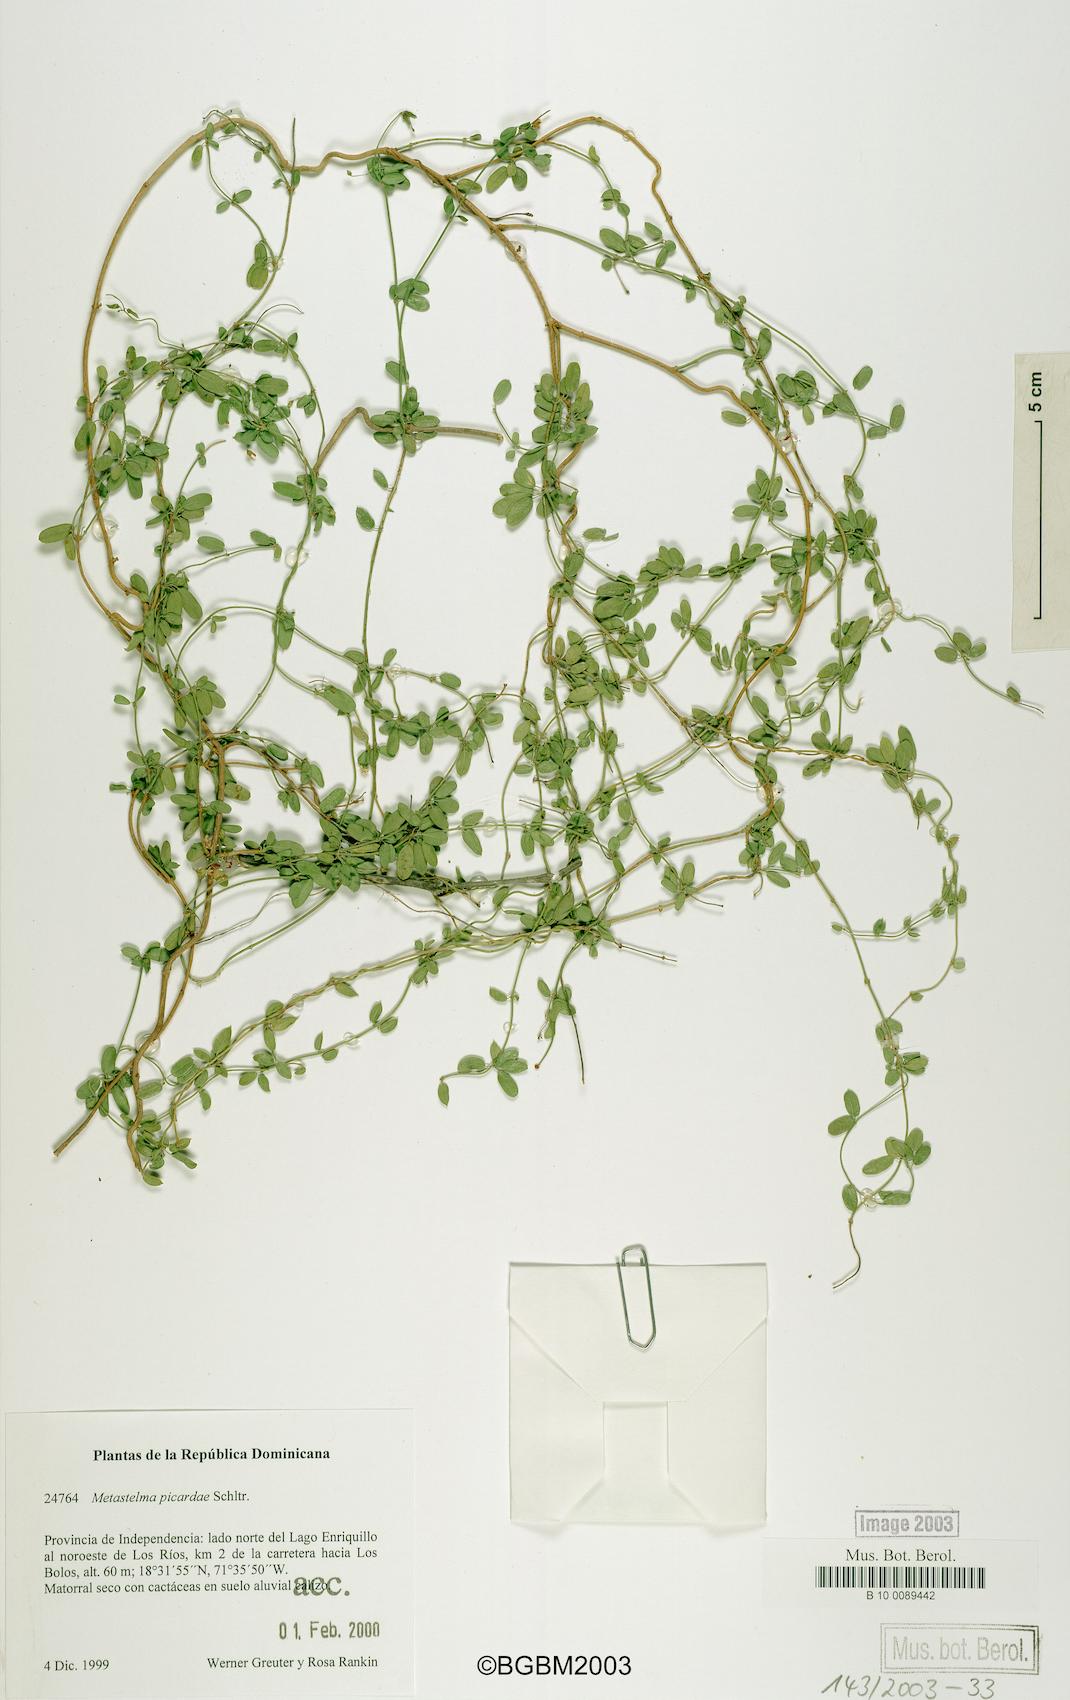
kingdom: Plantae
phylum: Tracheophyta
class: Magnoliopsida
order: Gentianales
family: Apocynaceae
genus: Metastelma
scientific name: Metastelma
